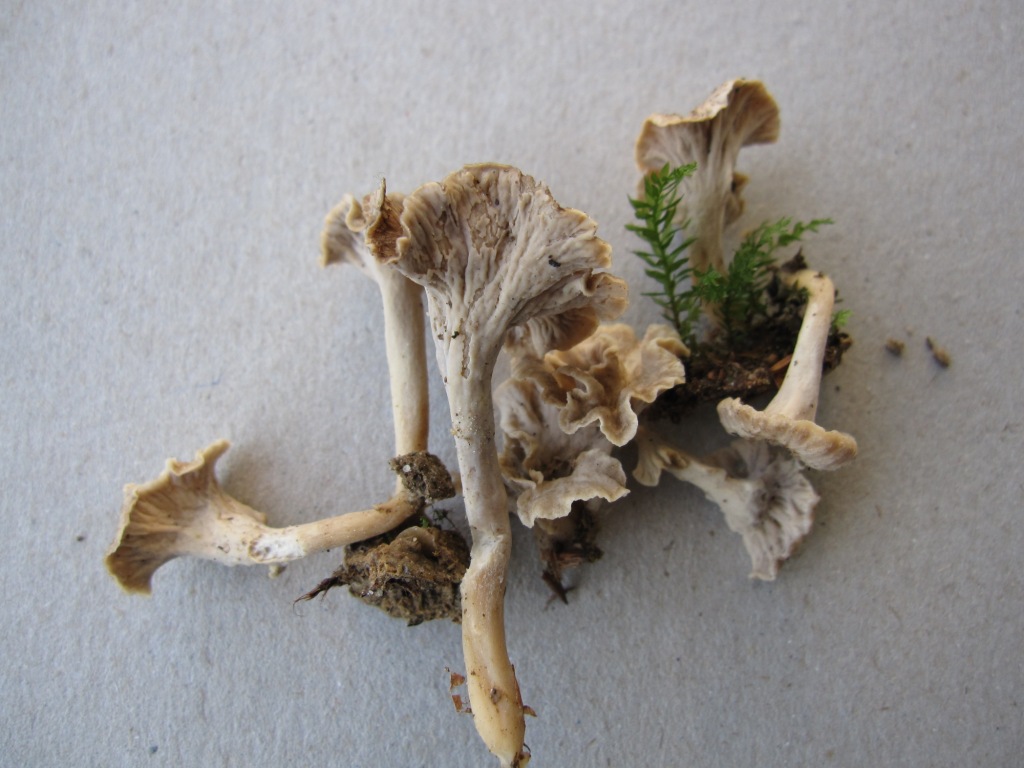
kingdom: Fungi
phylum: Basidiomycota
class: Agaricomycetes
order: Cantharellales
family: Hydnaceae
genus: Craterellus
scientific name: Craterellus undulatus
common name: liden kantarel
